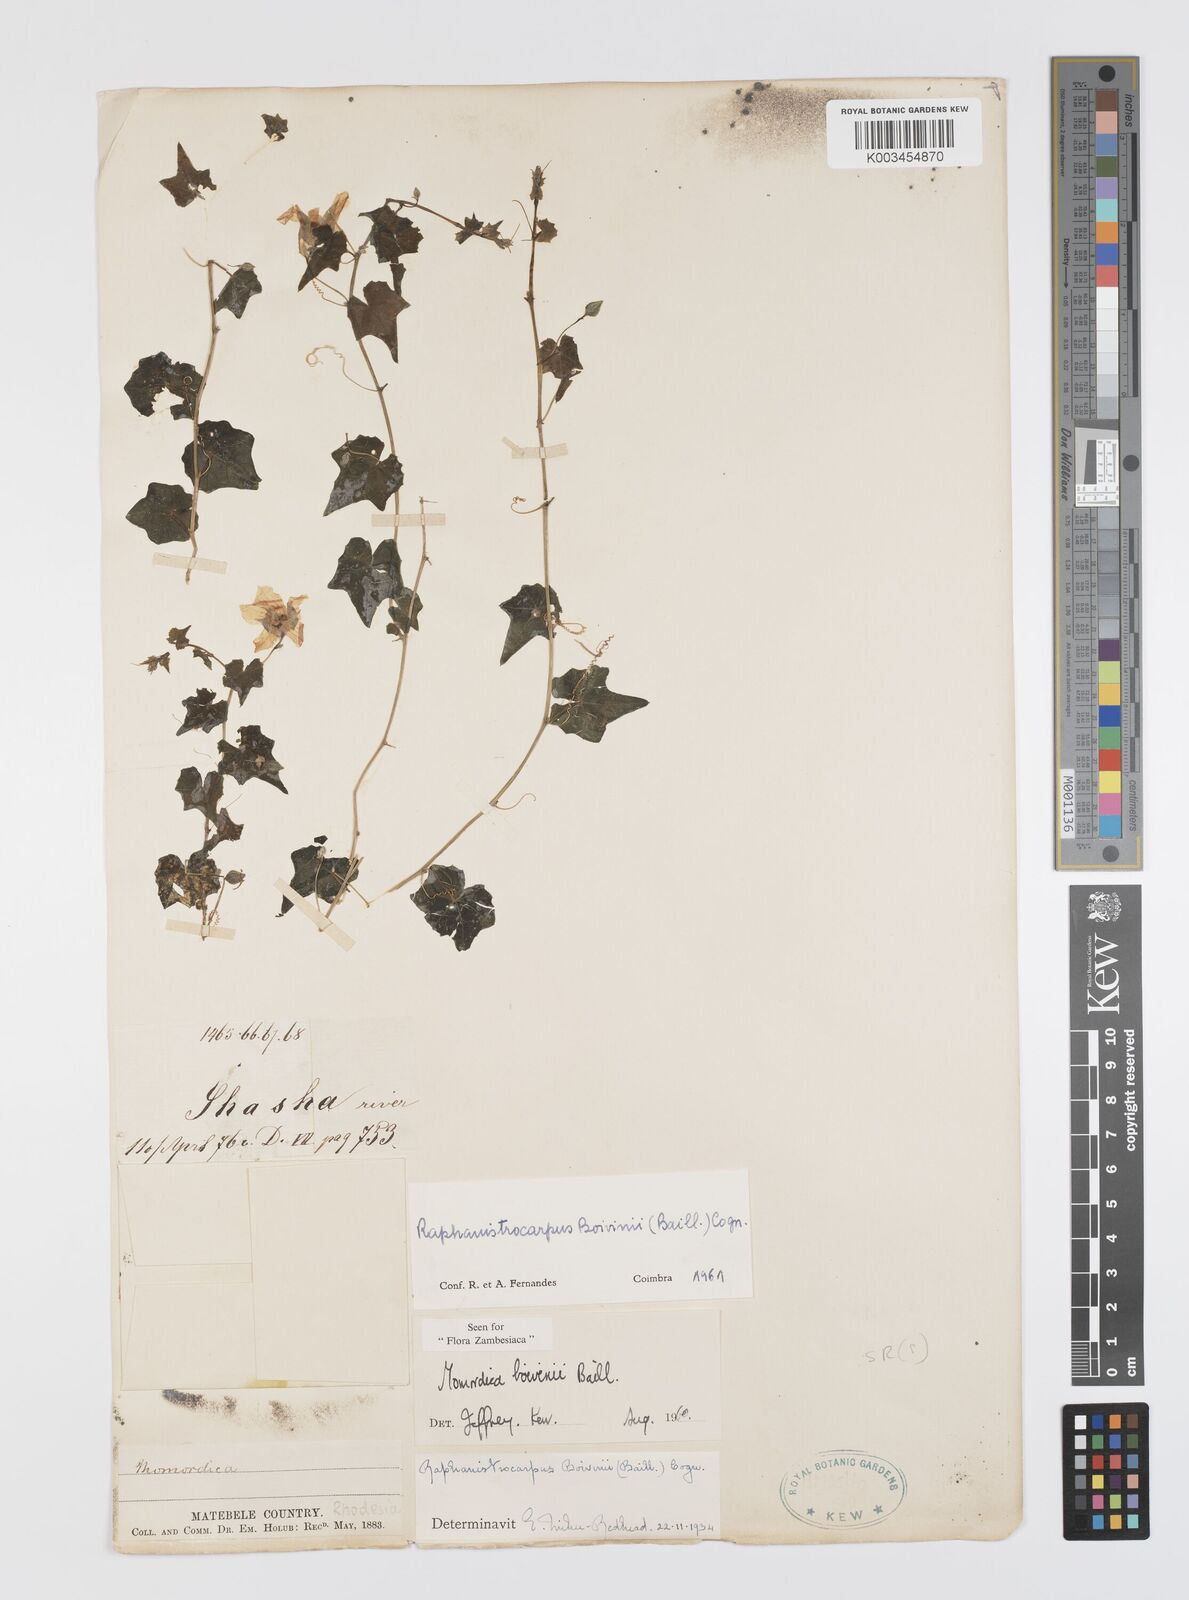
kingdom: Plantae
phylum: Tracheophyta
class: Magnoliopsida
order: Cucurbitales
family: Cucurbitaceae
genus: Momordica
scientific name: Momordica boivinii
